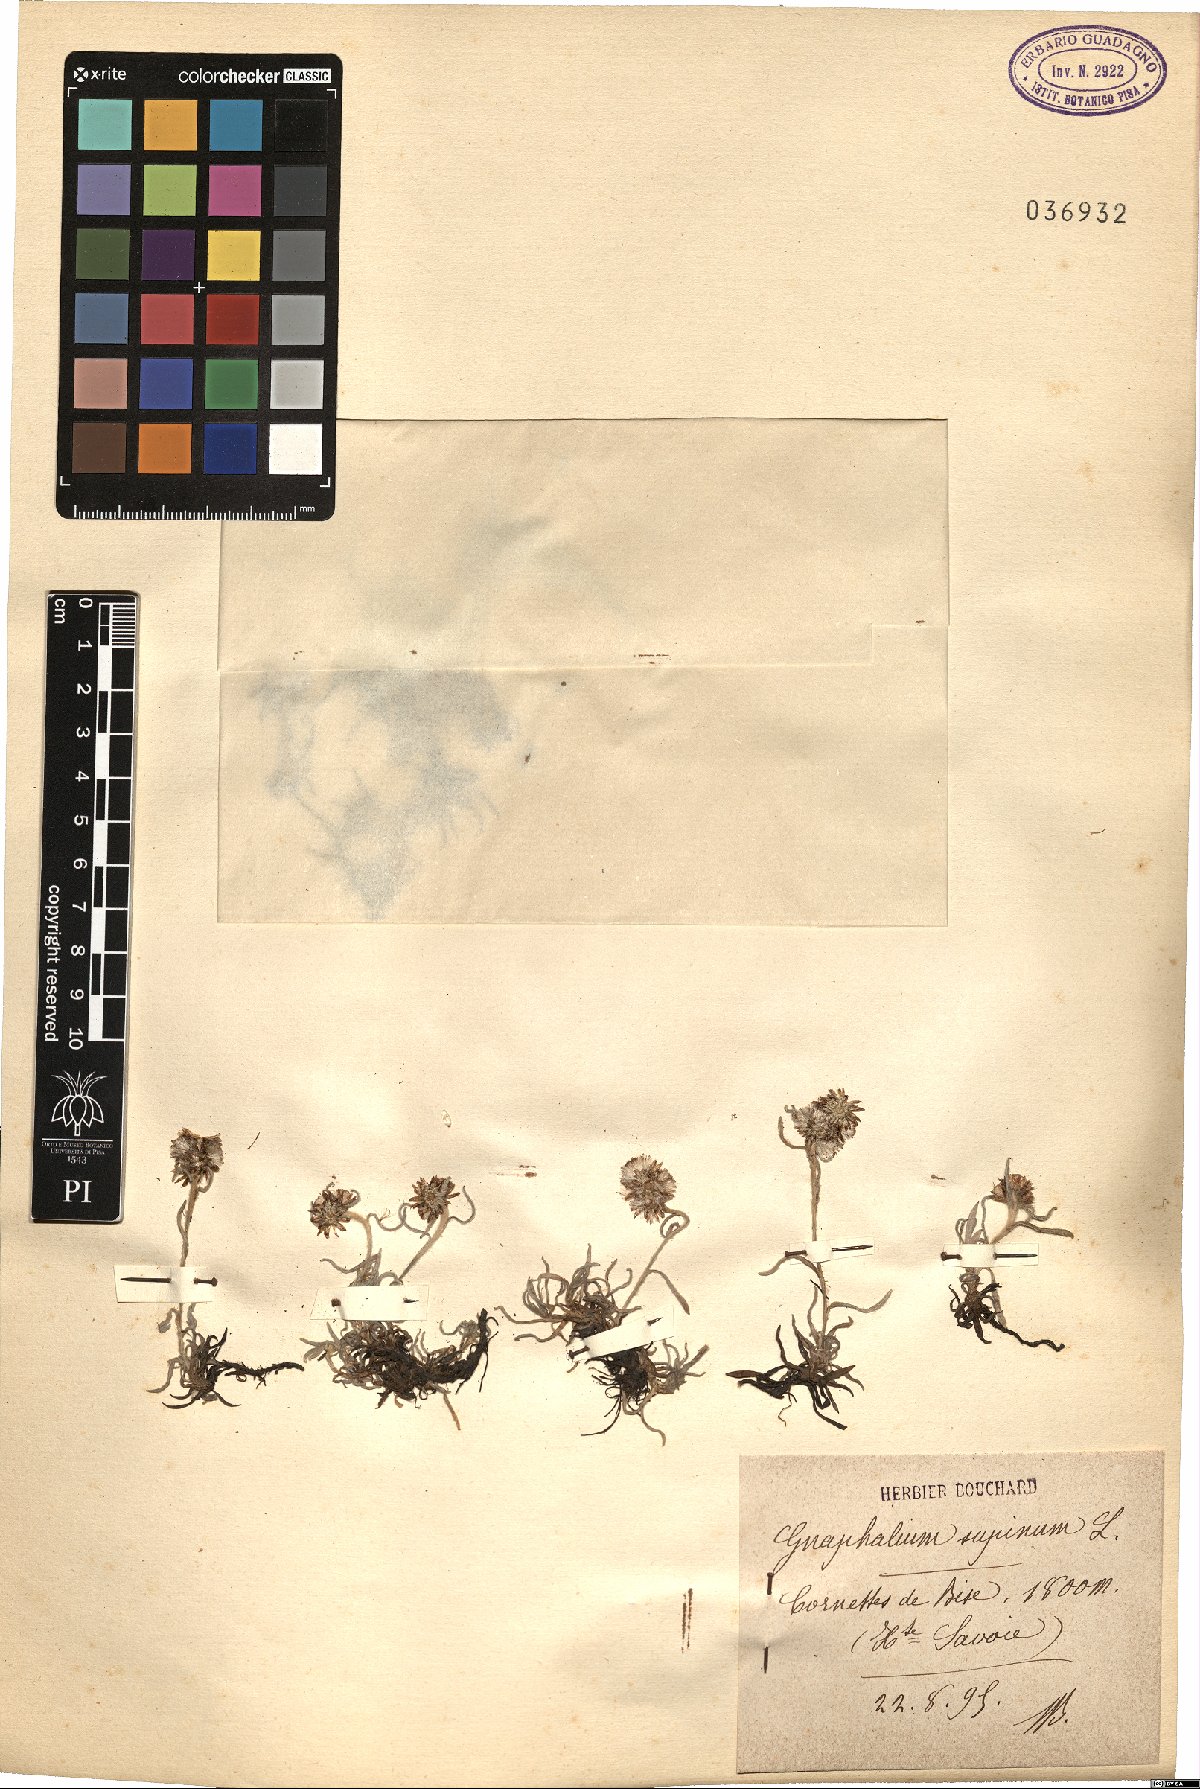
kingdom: Plantae
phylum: Tracheophyta
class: Magnoliopsida
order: Asterales
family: Asteraceae
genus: Omalotheca
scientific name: Omalotheca supina
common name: Alpine arctic-cudweed
